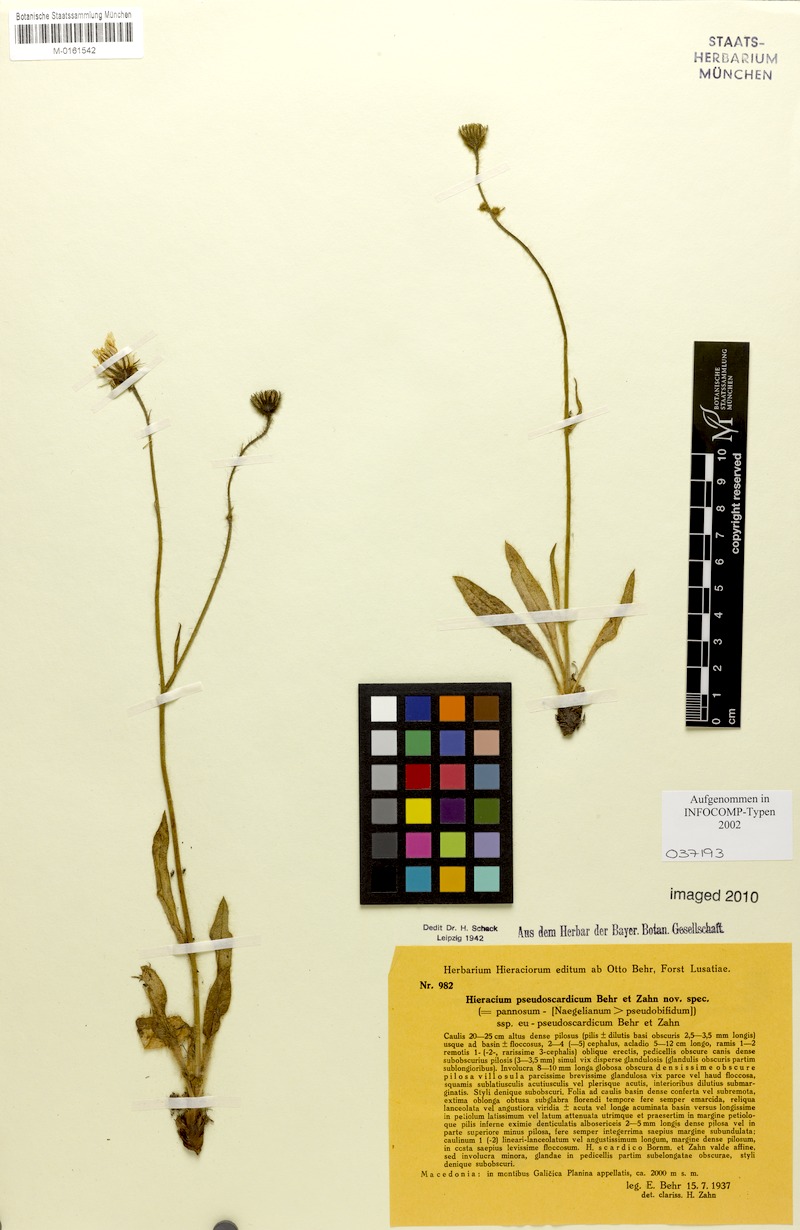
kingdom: Plantae
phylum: Tracheophyta
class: Magnoliopsida
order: Asterales
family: Asteraceae
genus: Hieracium
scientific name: Hieracium pseudoscardicum
